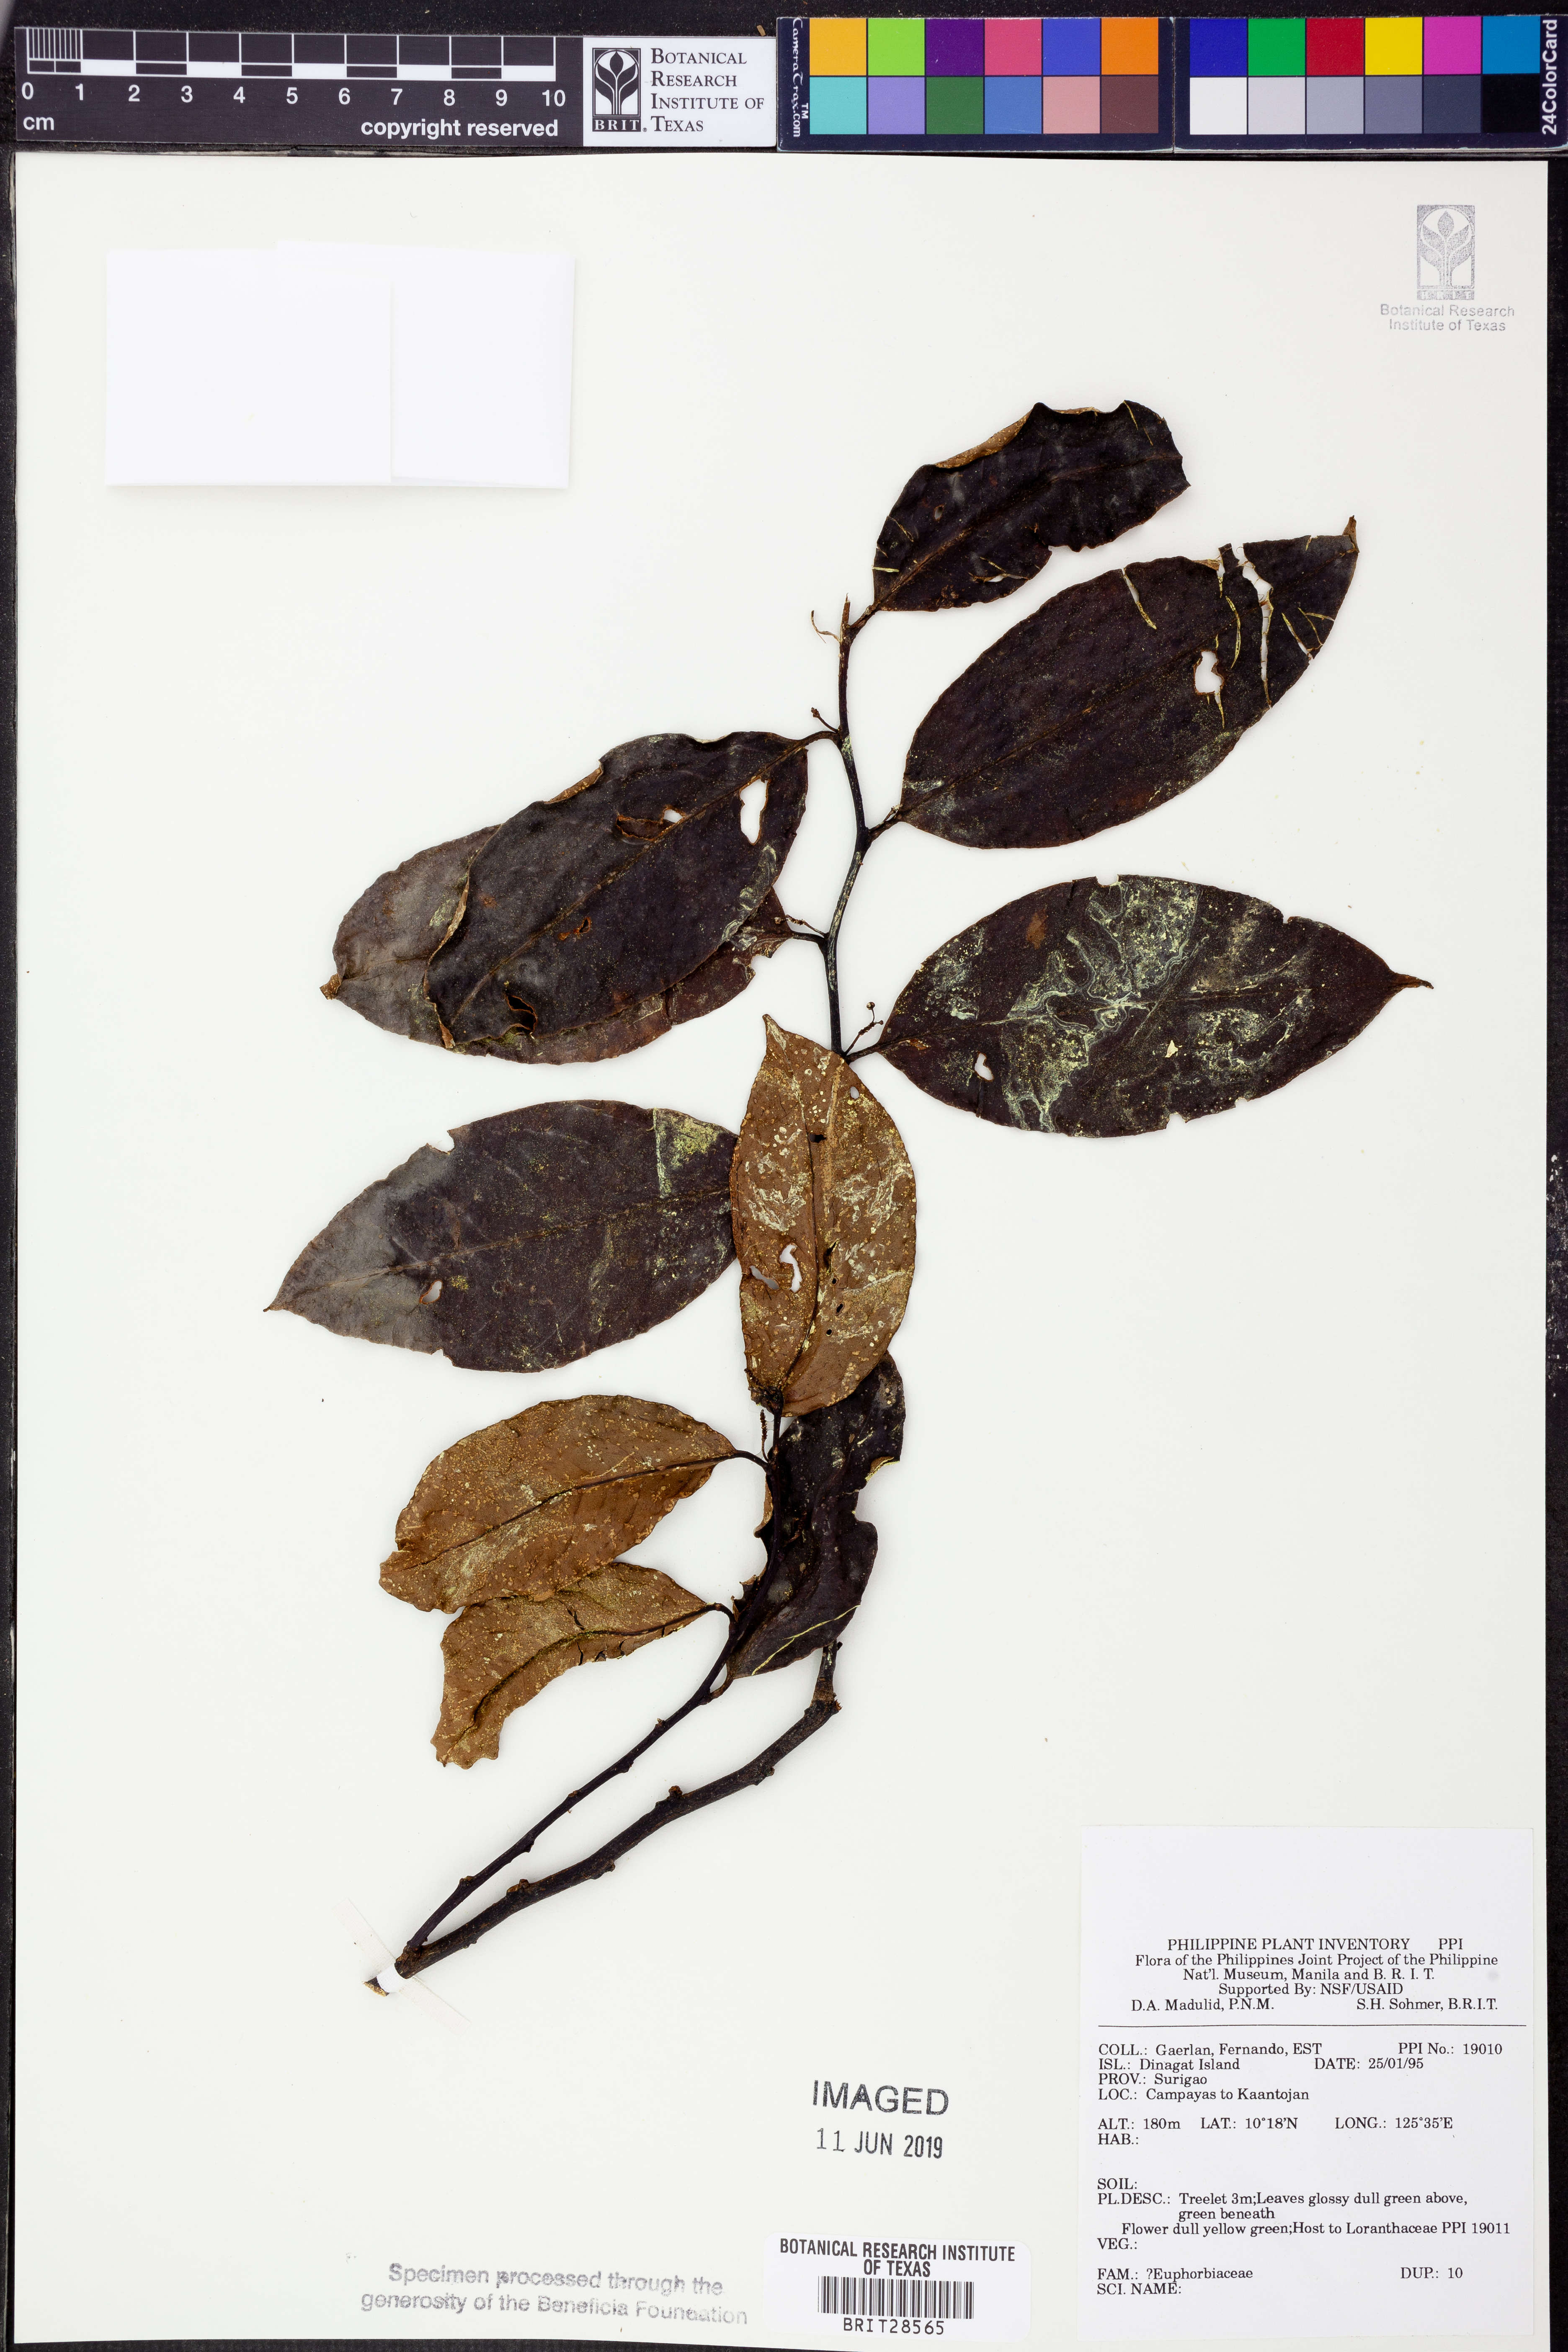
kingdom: Plantae
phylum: Tracheophyta
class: Magnoliopsida
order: Malpighiales
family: Euphorbiaceae
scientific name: Euphorbiaceae
